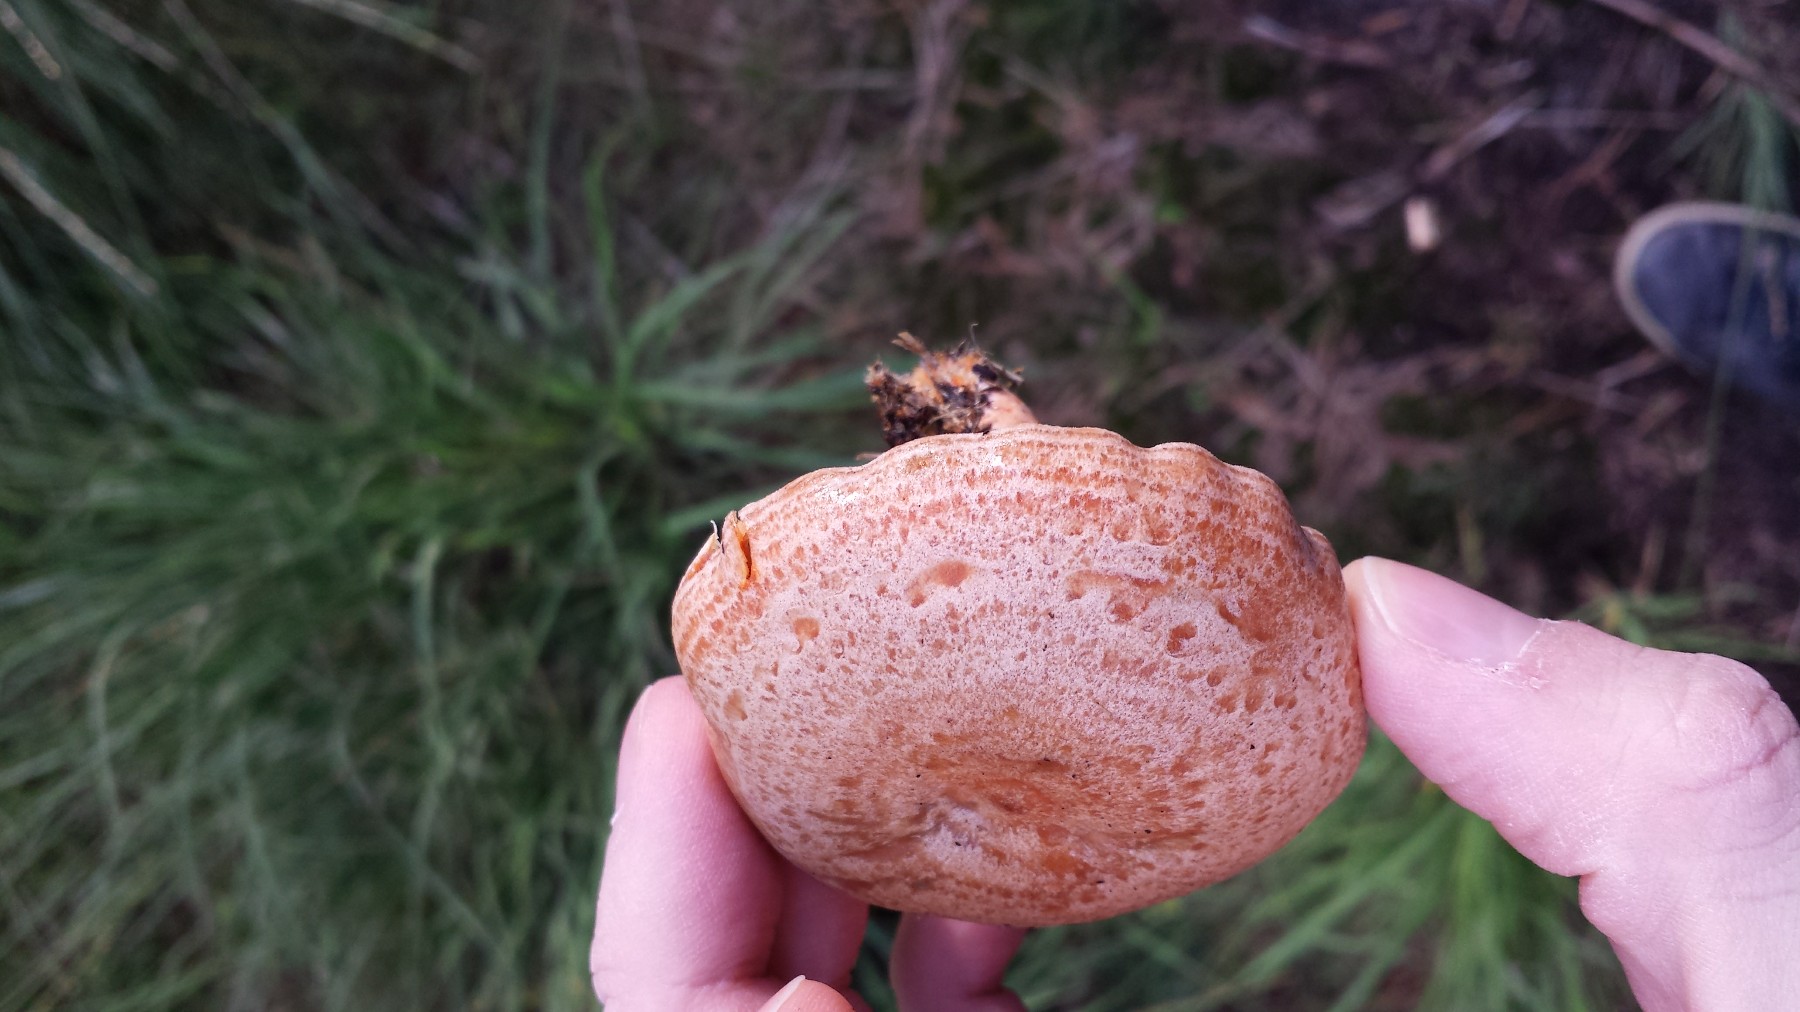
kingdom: Fungi
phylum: Basidiomycota
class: Agaricomycetes
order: Russulales
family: Russulaceae
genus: Lactarius
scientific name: Lactarius deliciosus
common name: velsmagende mælkehat
